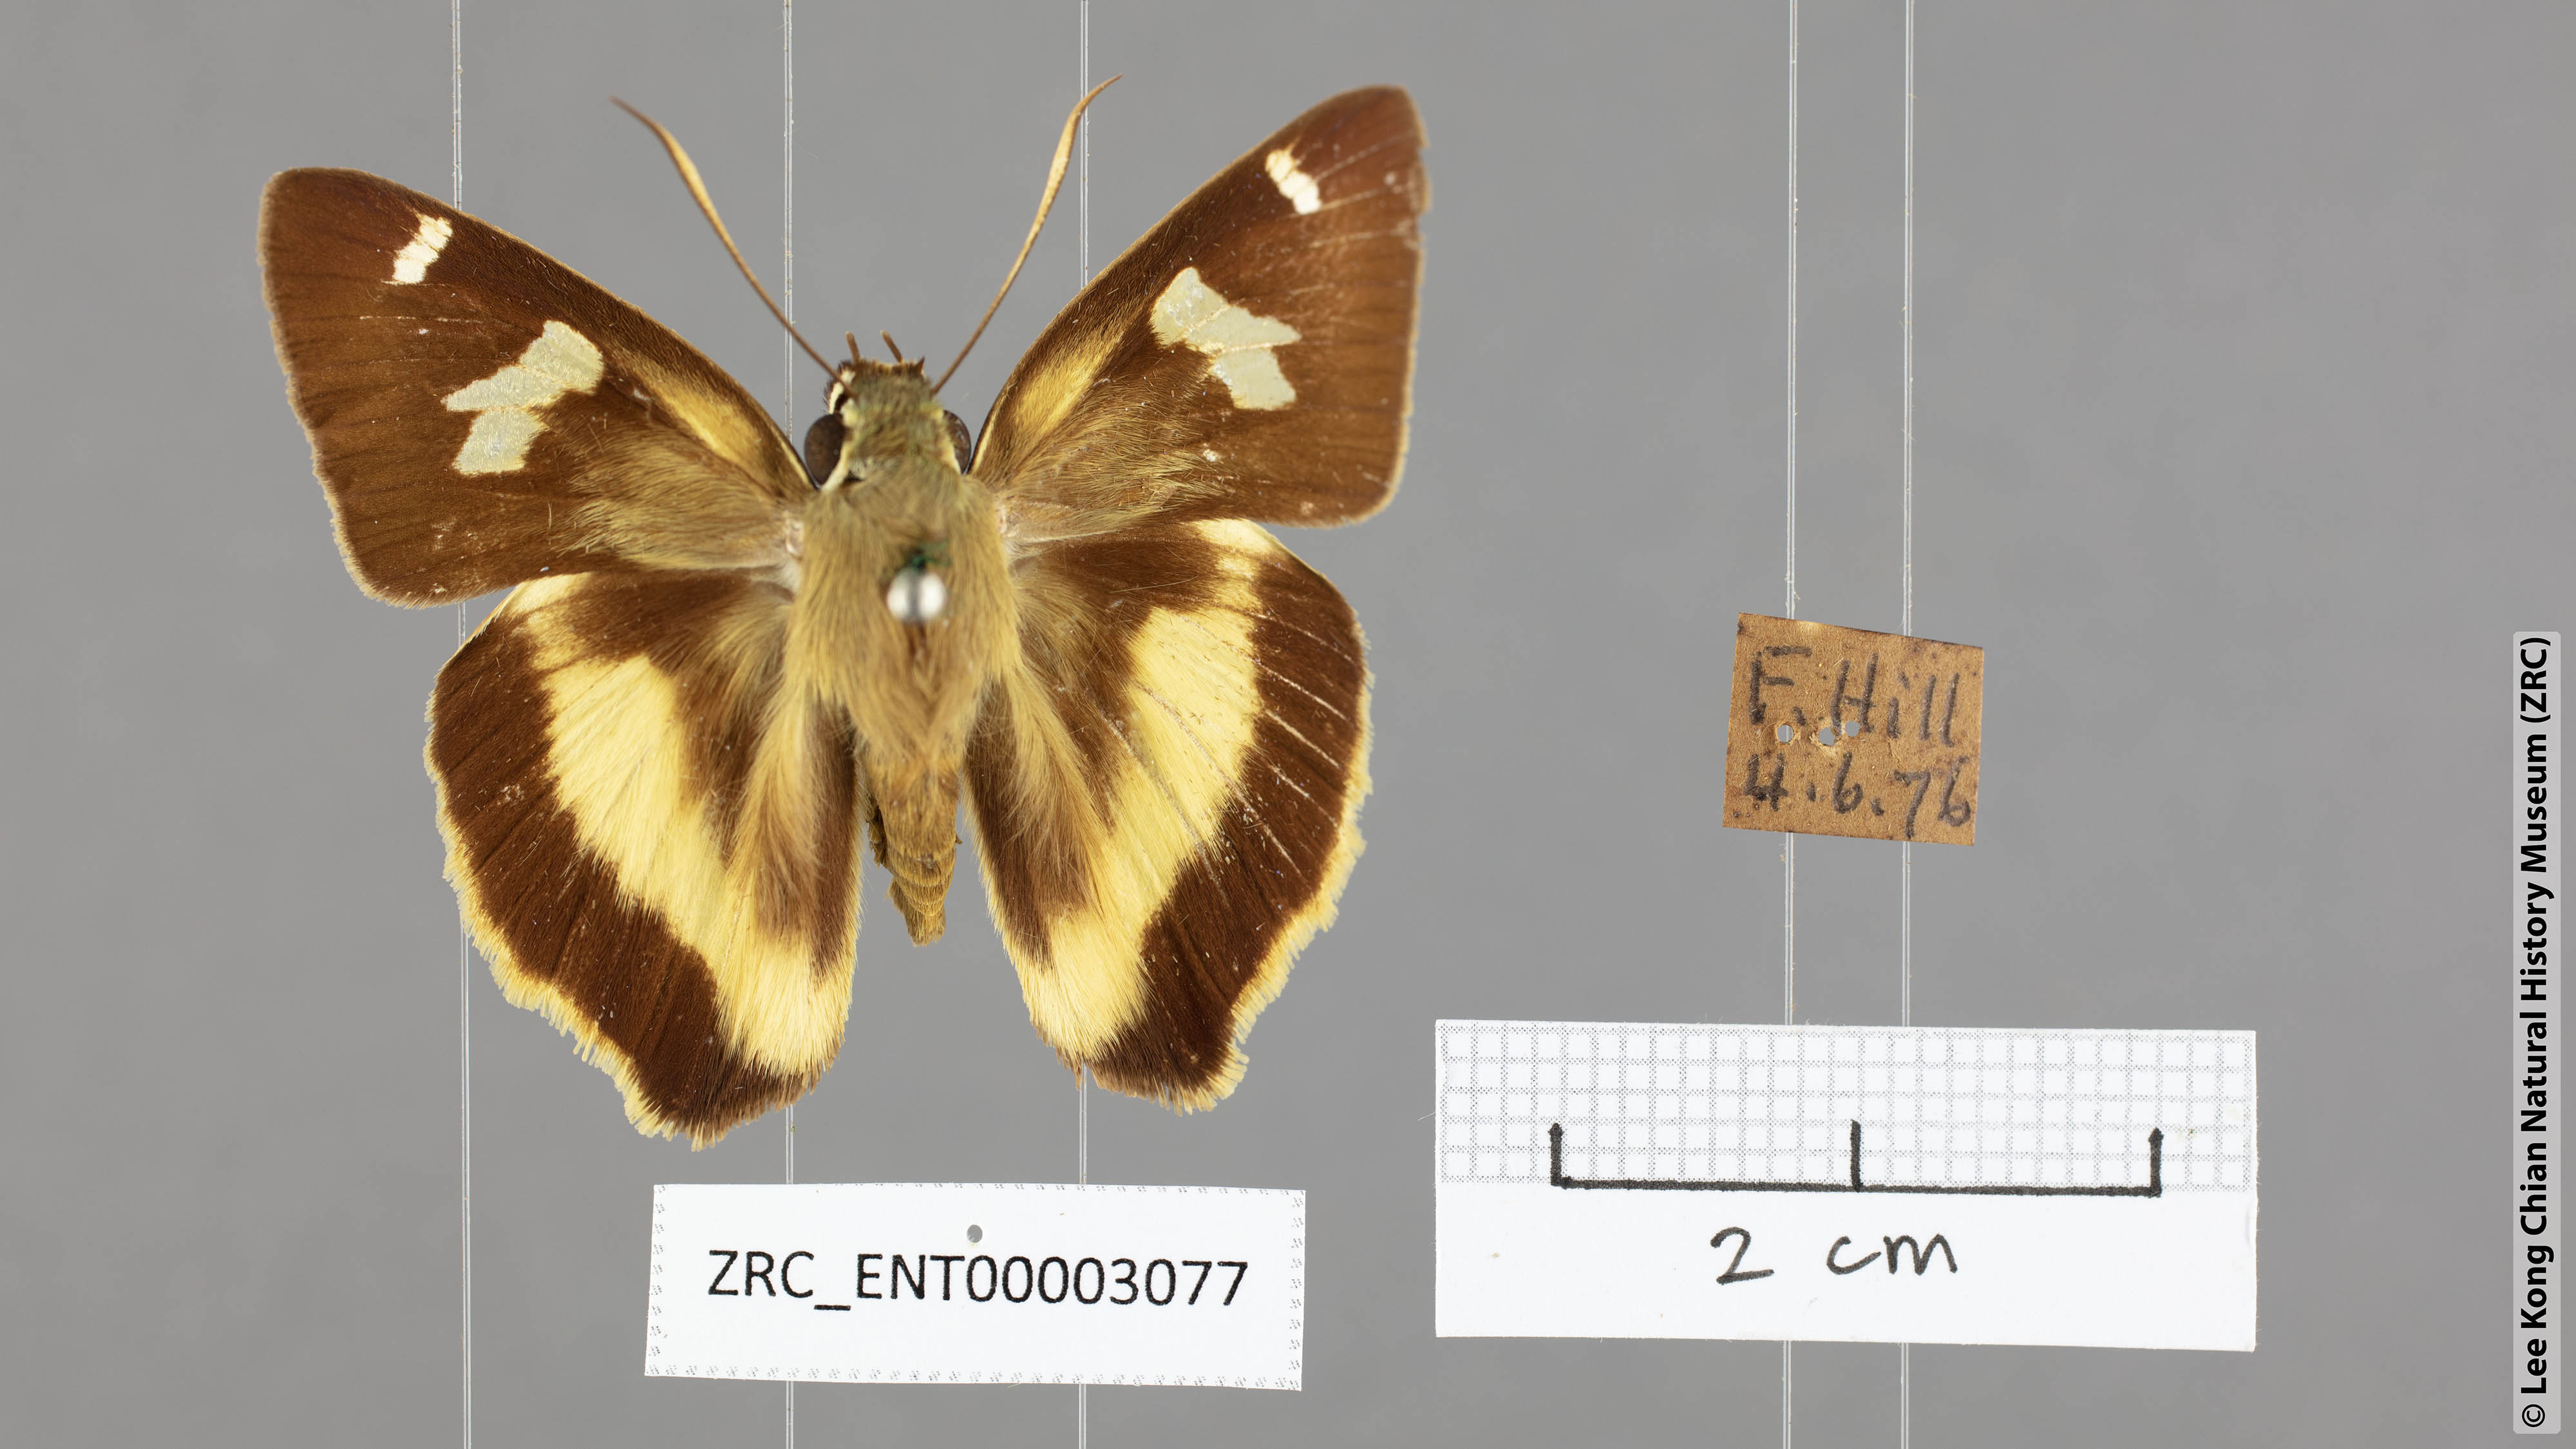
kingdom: Animalia
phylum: Arthropoda
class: Insecta
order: Lepidoptera
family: Hesperiidae
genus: Hasora
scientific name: Hasora schoenherr
